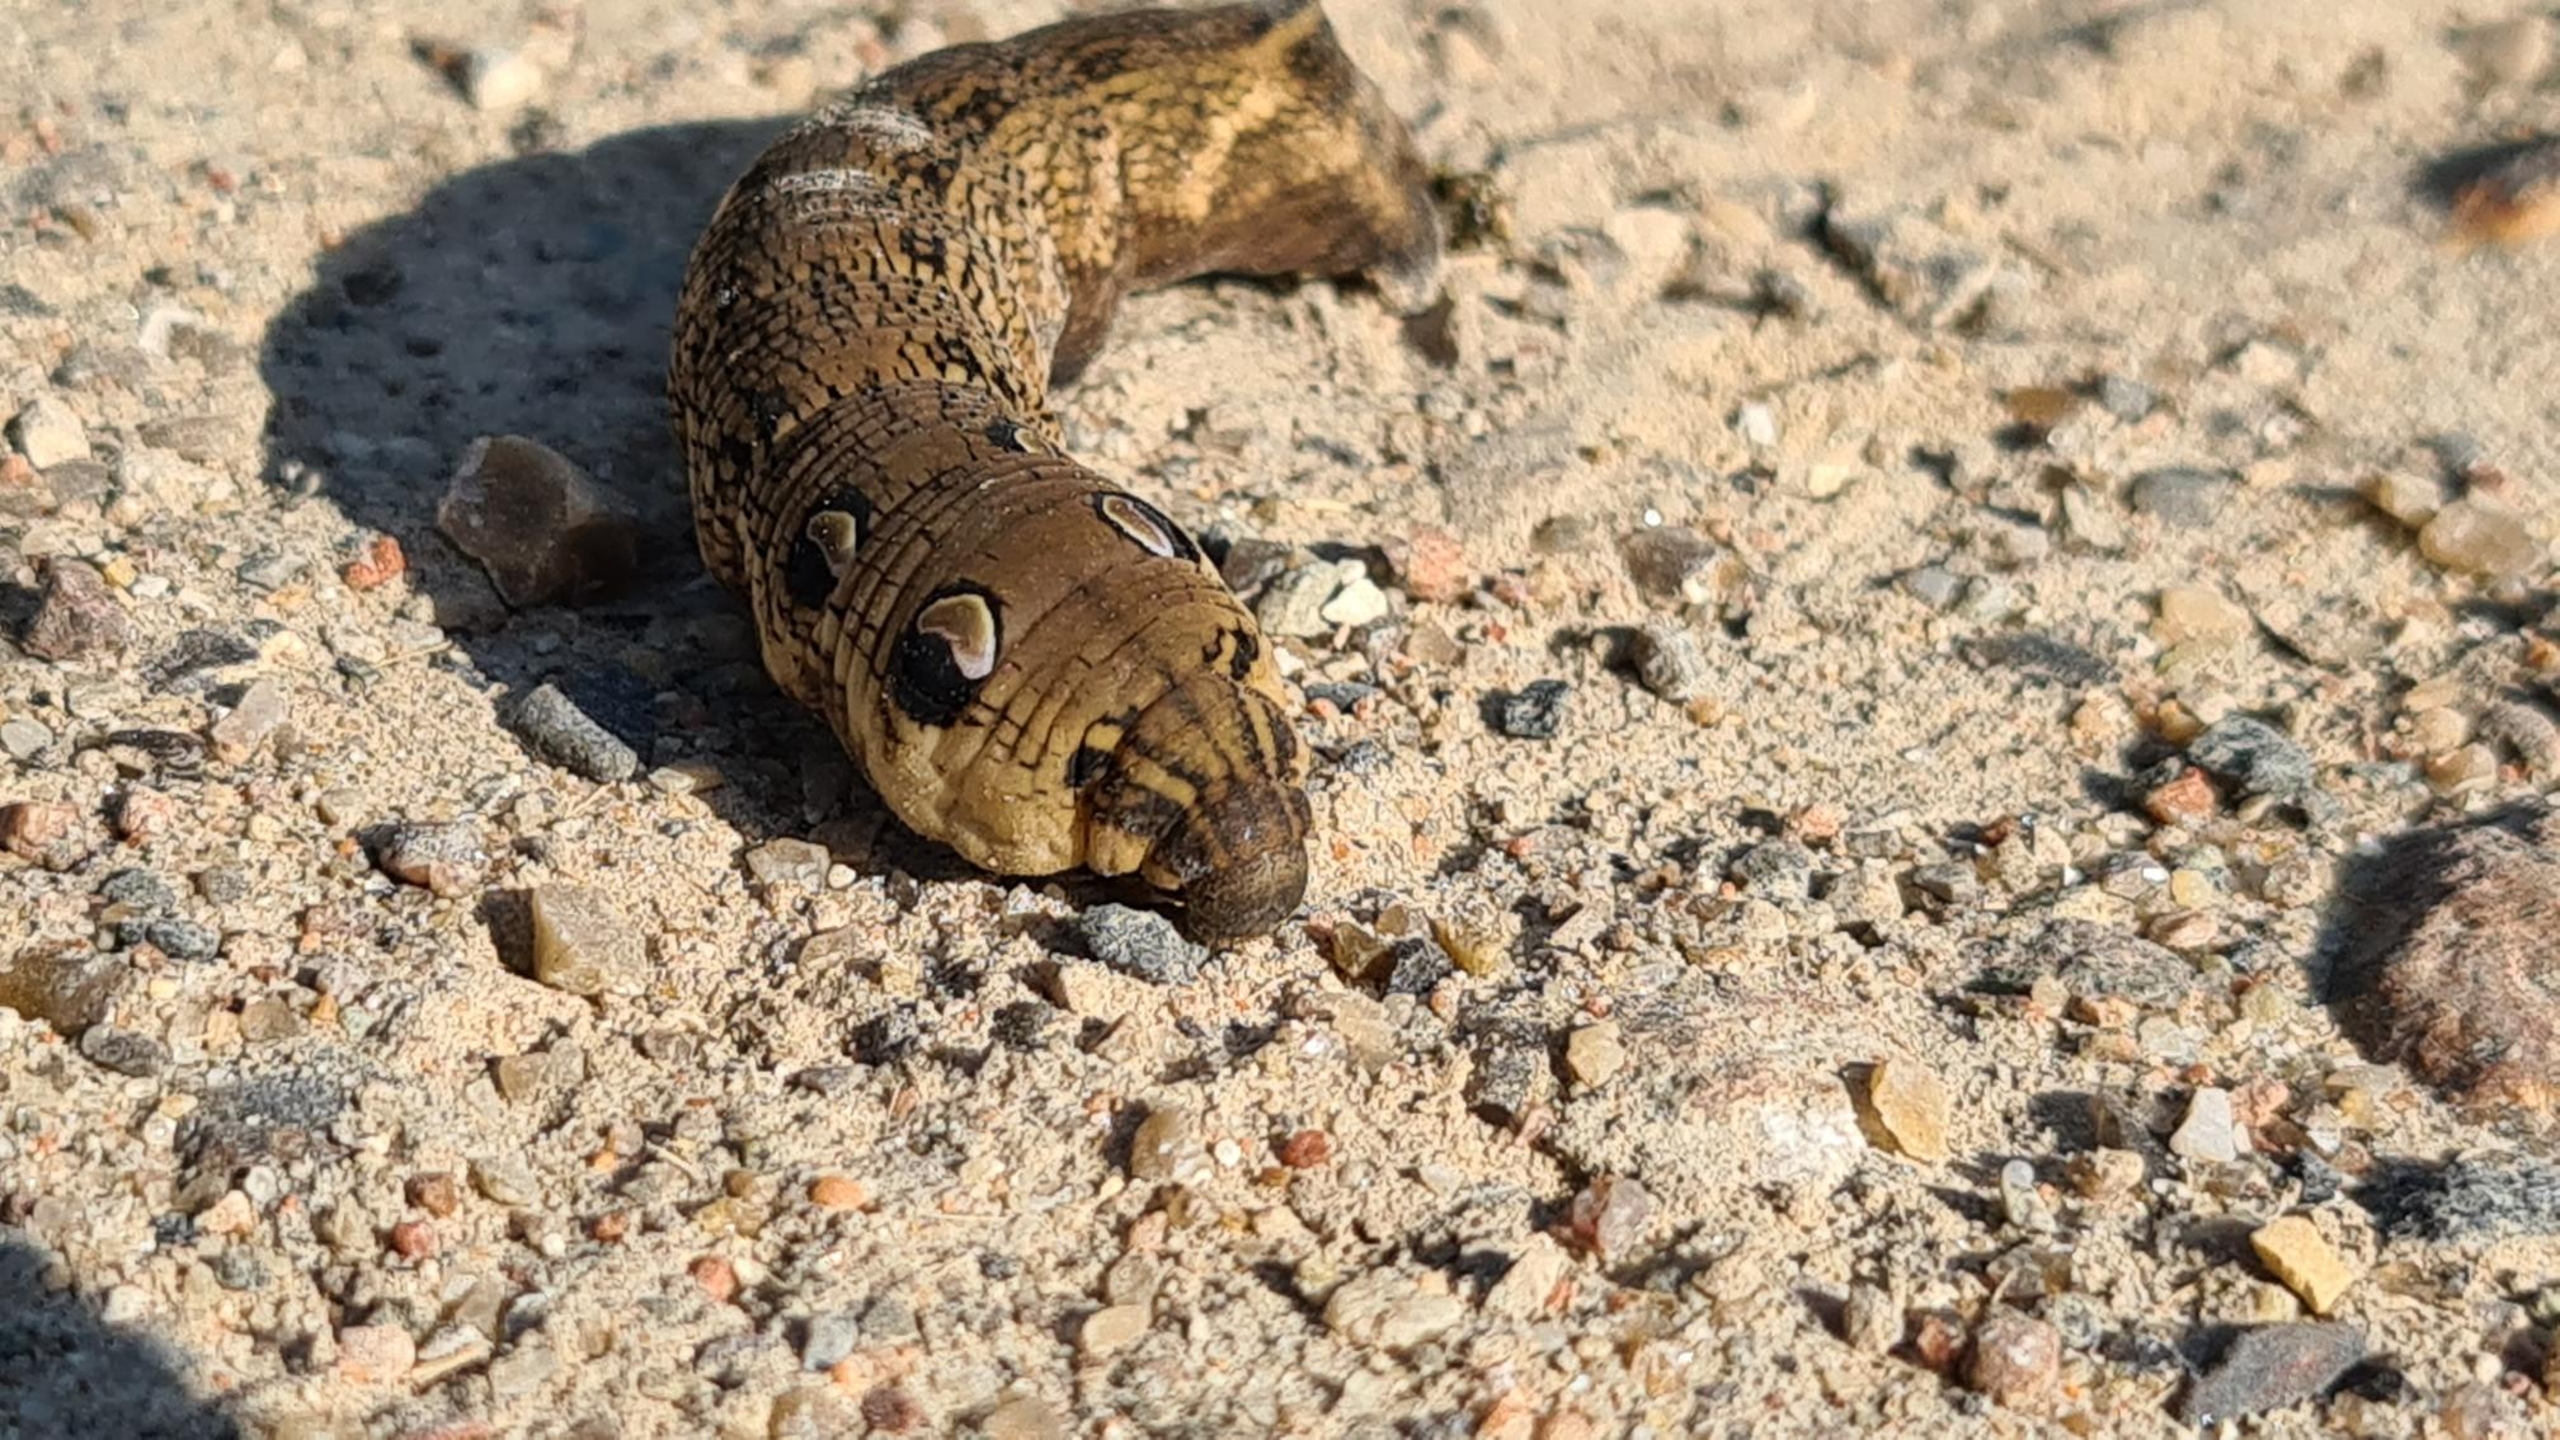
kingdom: Animalia
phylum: Arthropoda
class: Insecta
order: Lepidoptera
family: Sphingidae
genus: Deilephila
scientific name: Deilephila elpenor
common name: Dueurtsværmer
